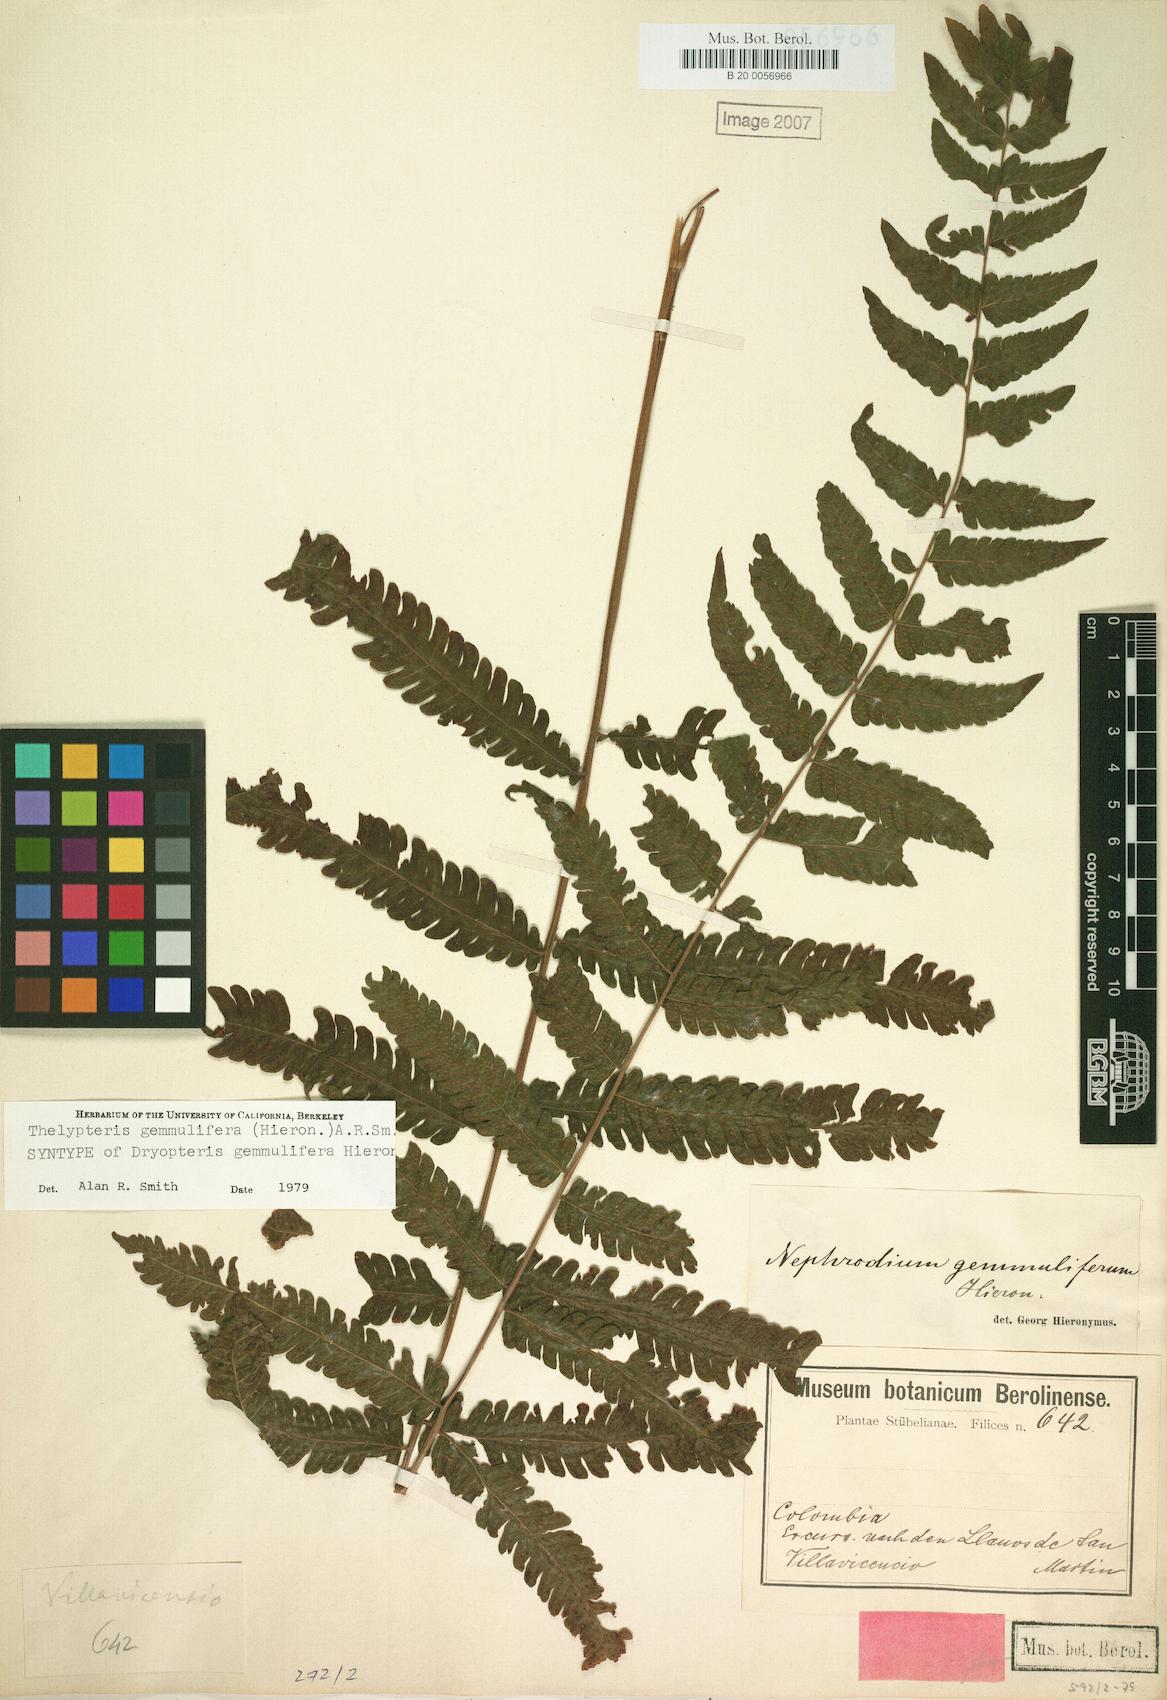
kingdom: Plantae
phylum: Tracheophyta
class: Polypodiopsida
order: Polypodiales
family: Thelypteridaceae
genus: Goniopteris
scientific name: Goniopteris gemmulifera
